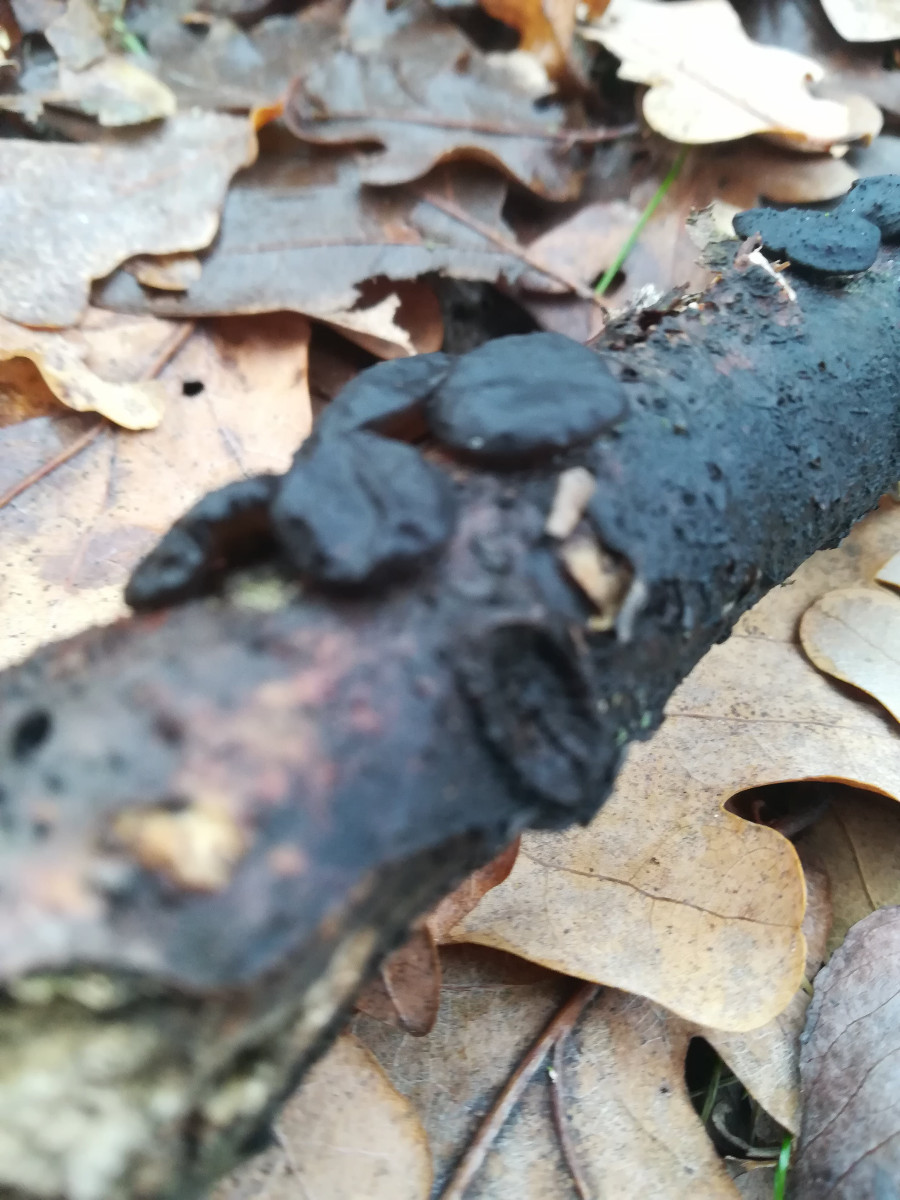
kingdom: Fungi
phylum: Basidiomycota
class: Agaricomycetes
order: Auriculariales
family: Auriculariaceae
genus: Exidia
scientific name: Exidia glandulosa
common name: ege-bævretop
